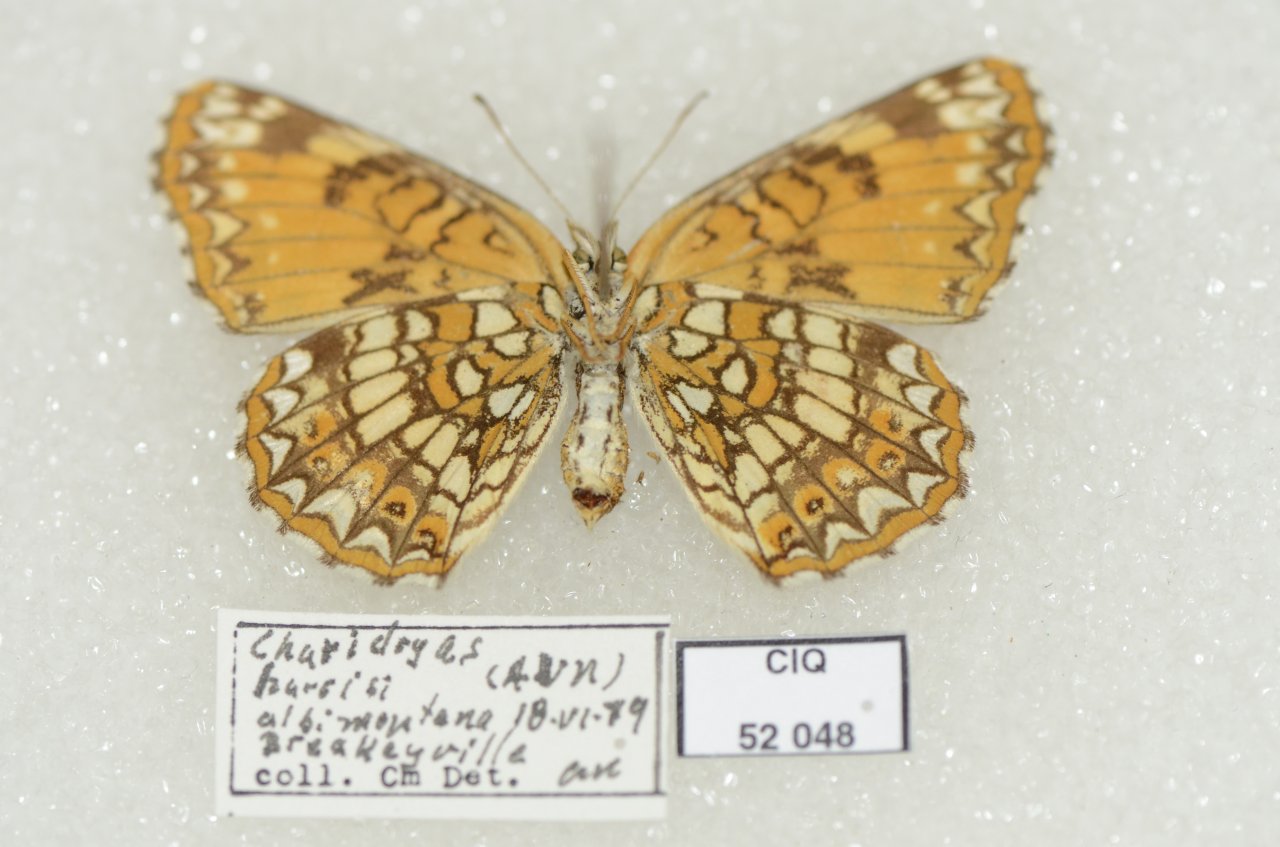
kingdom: Animalia
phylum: Arthropoda
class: Insecta
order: Lepidoptera
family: Nymphalidae
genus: Chlosyne
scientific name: Chlosyne harrisii
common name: Harris's Checkerspot
